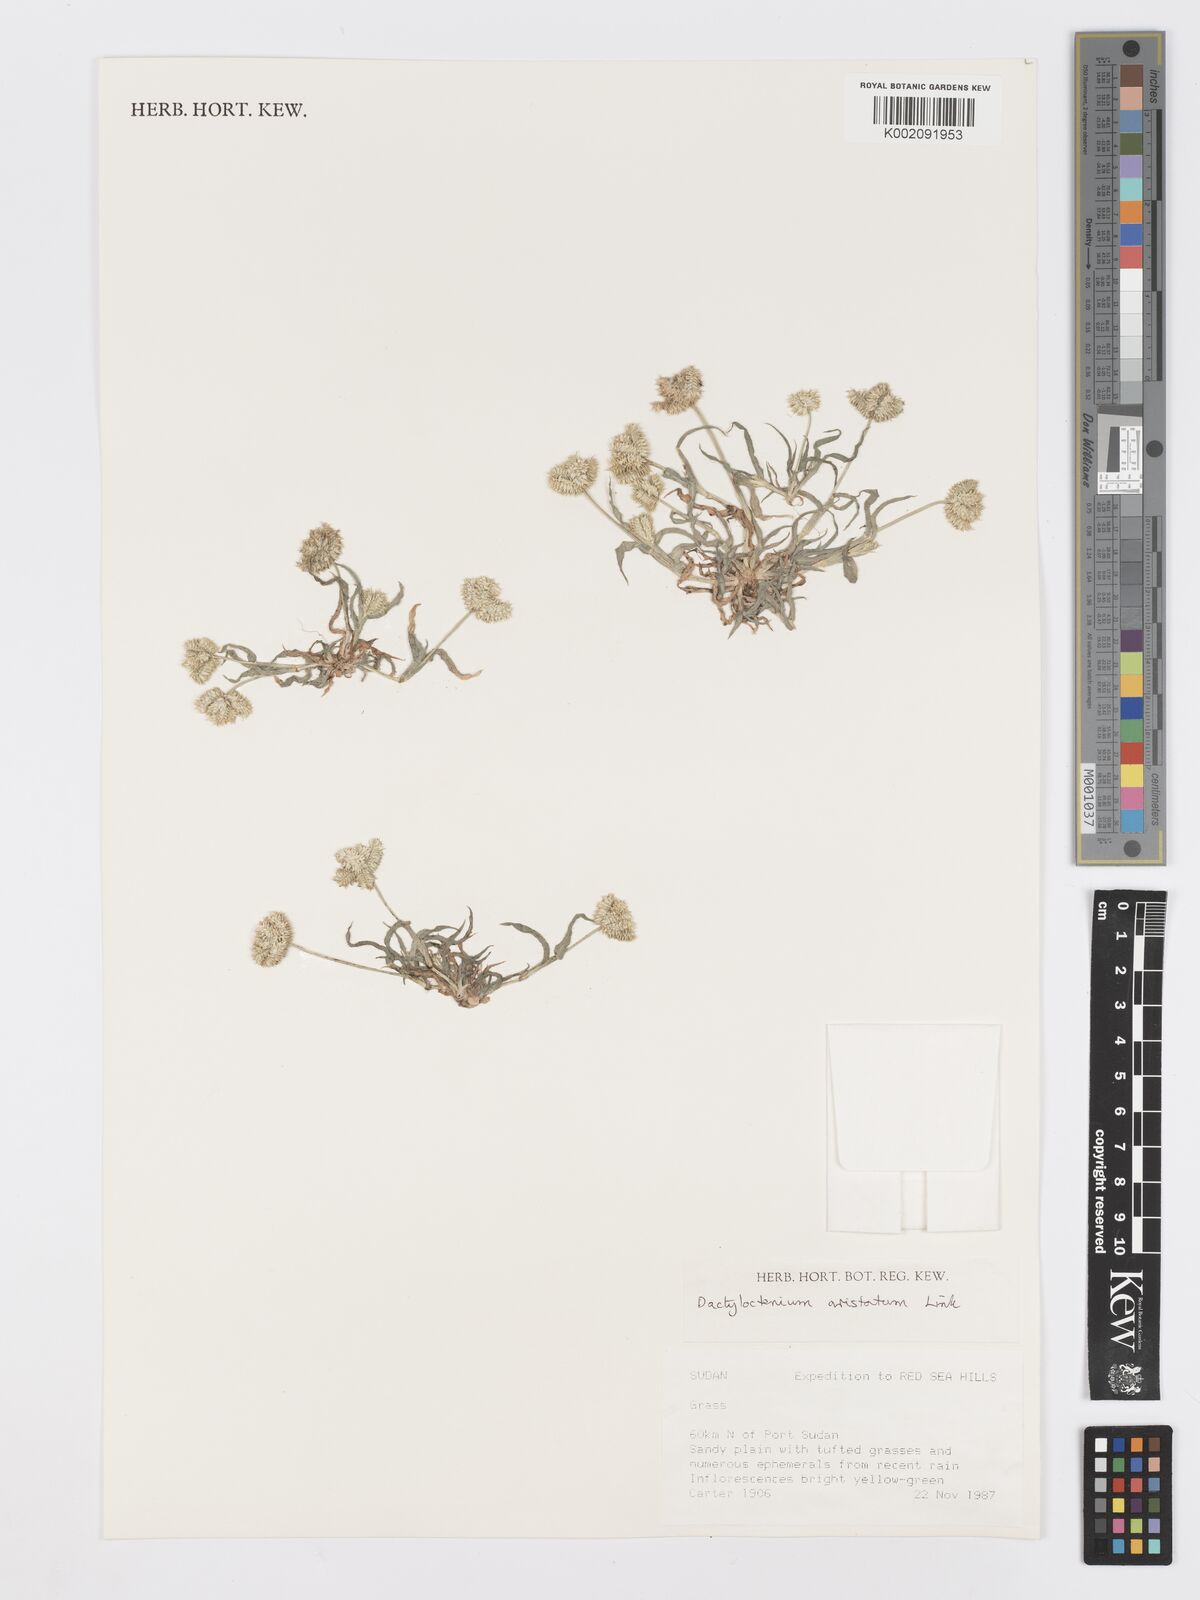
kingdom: Plantae
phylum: Tracheophyta
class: Liliopsida
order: Poales
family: Poaceae
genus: Dactyloctenium
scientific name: Dactyloctenium aristatum
